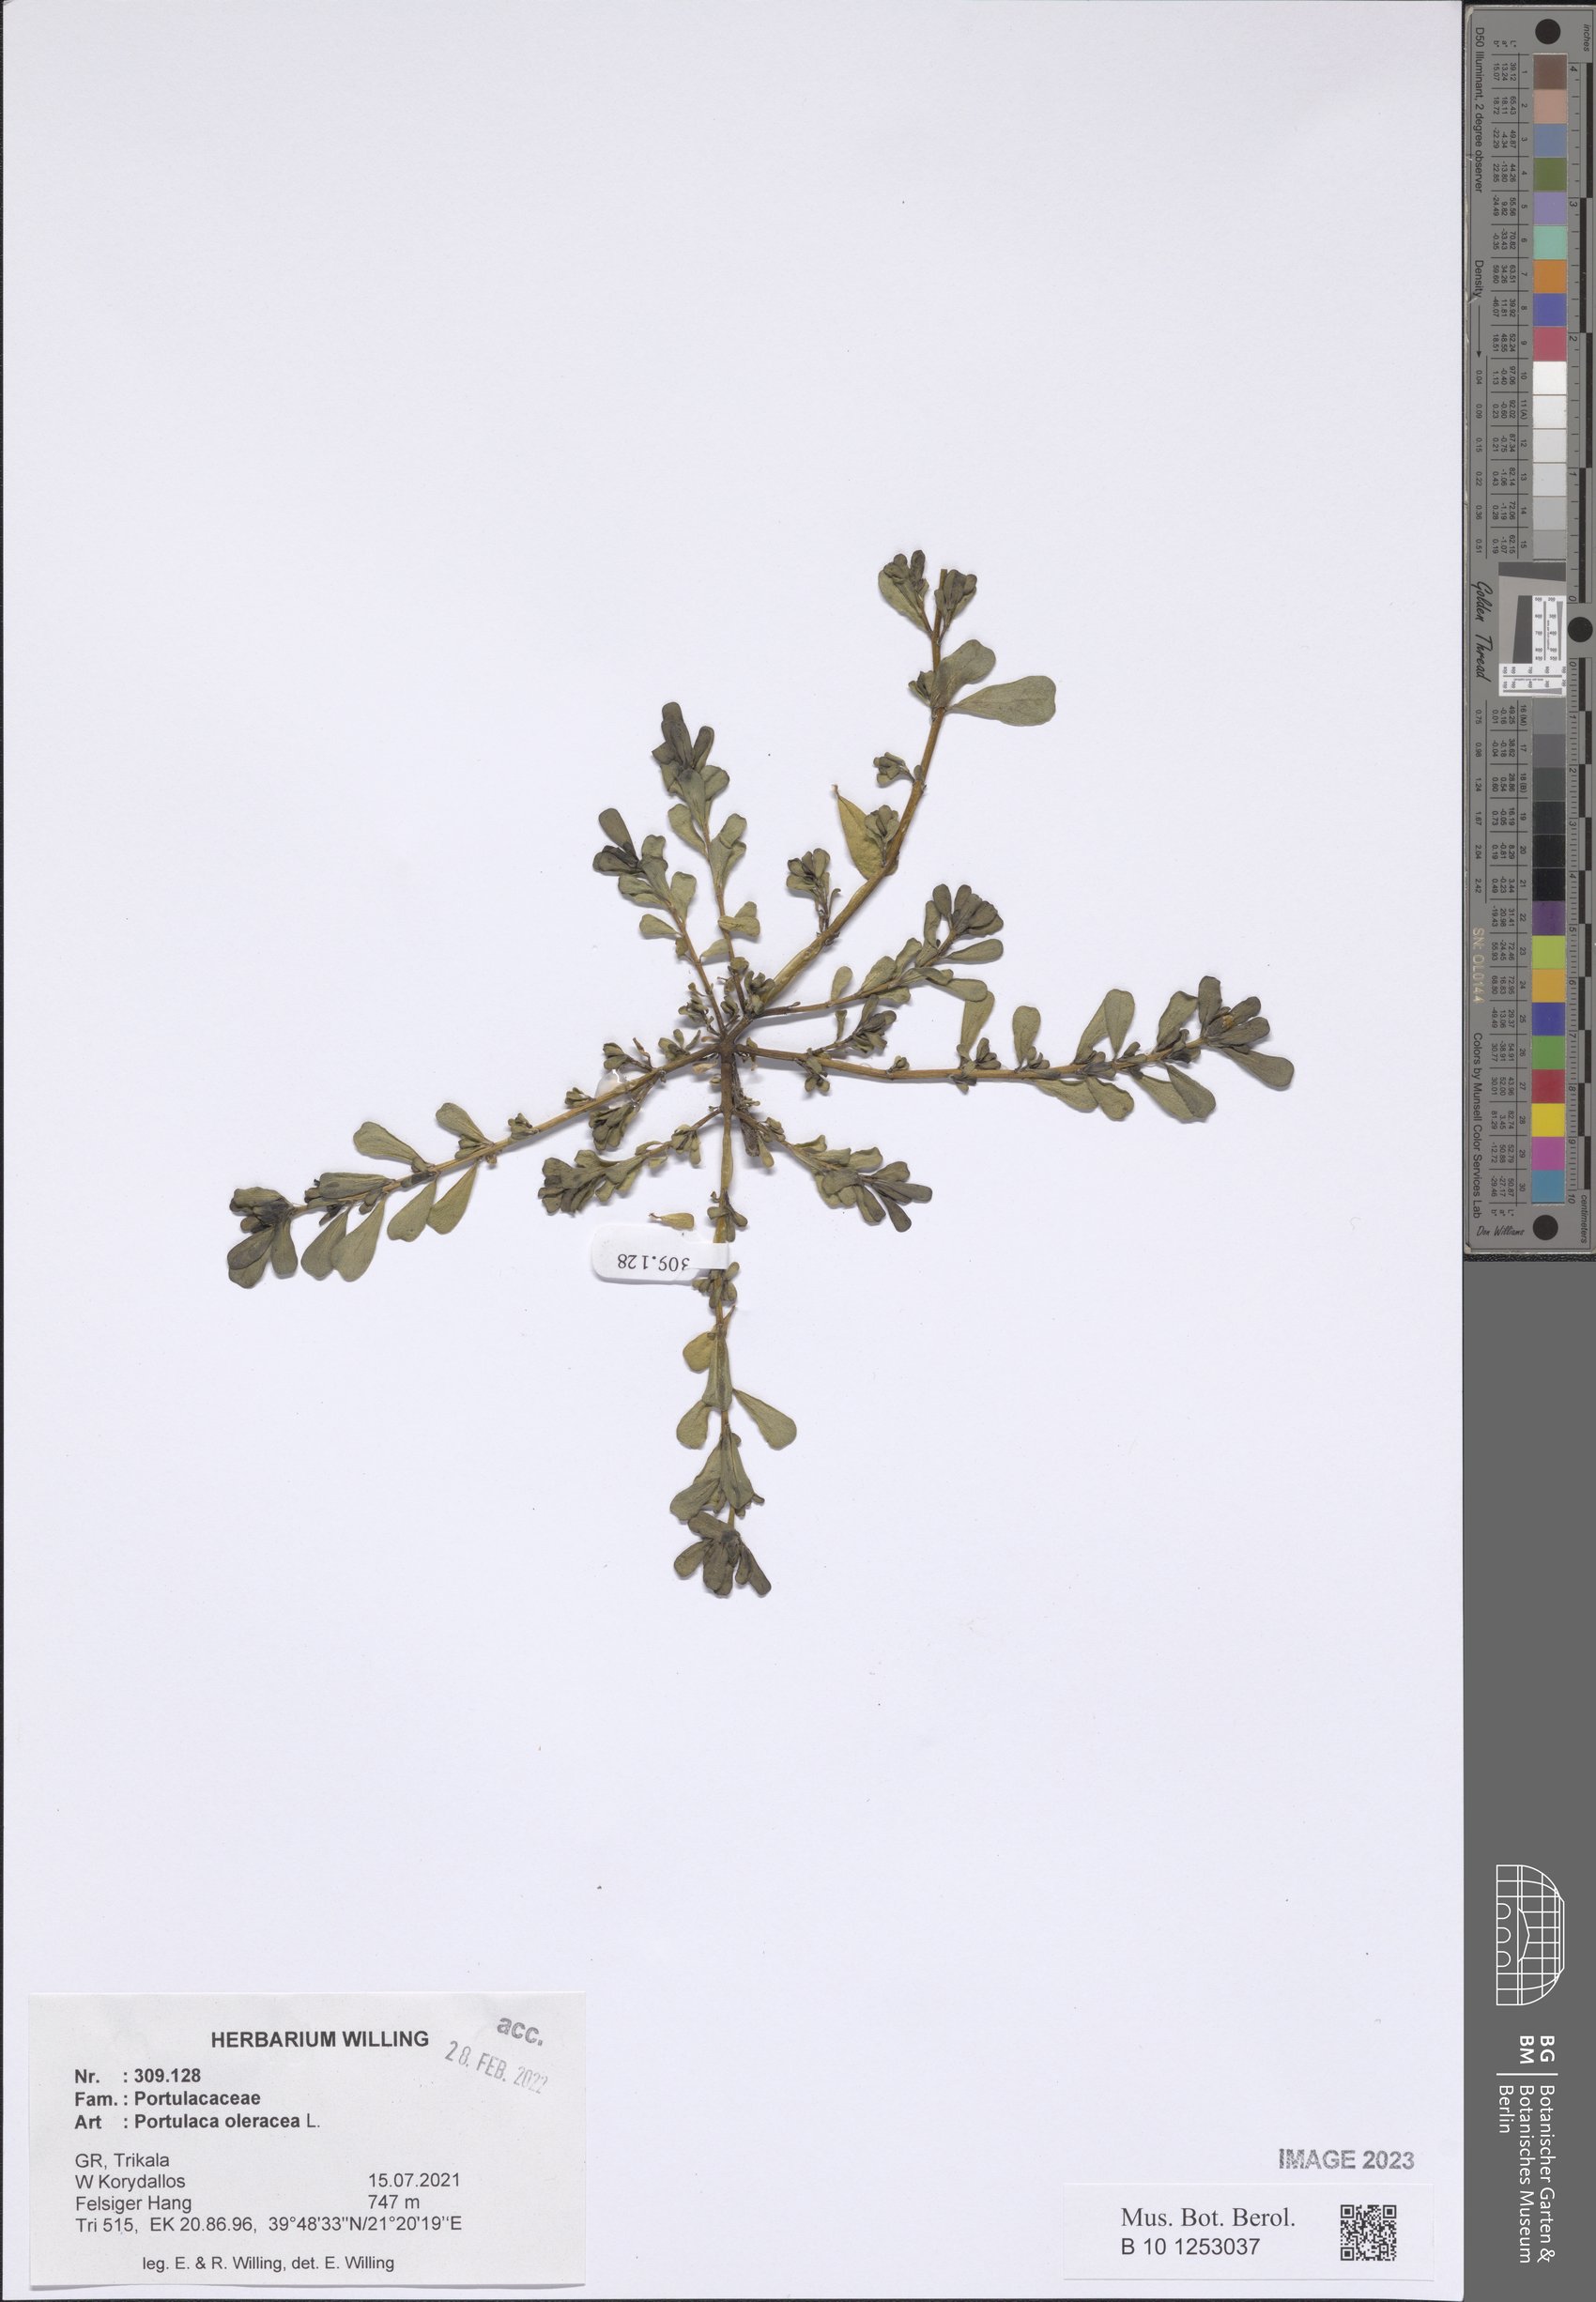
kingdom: Plantae
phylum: Tracheophyta
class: Magnoliopsida
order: Caryophyllales
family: Portulacaceae
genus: Portulaca
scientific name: Portulaca oleracea
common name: Common purslane
